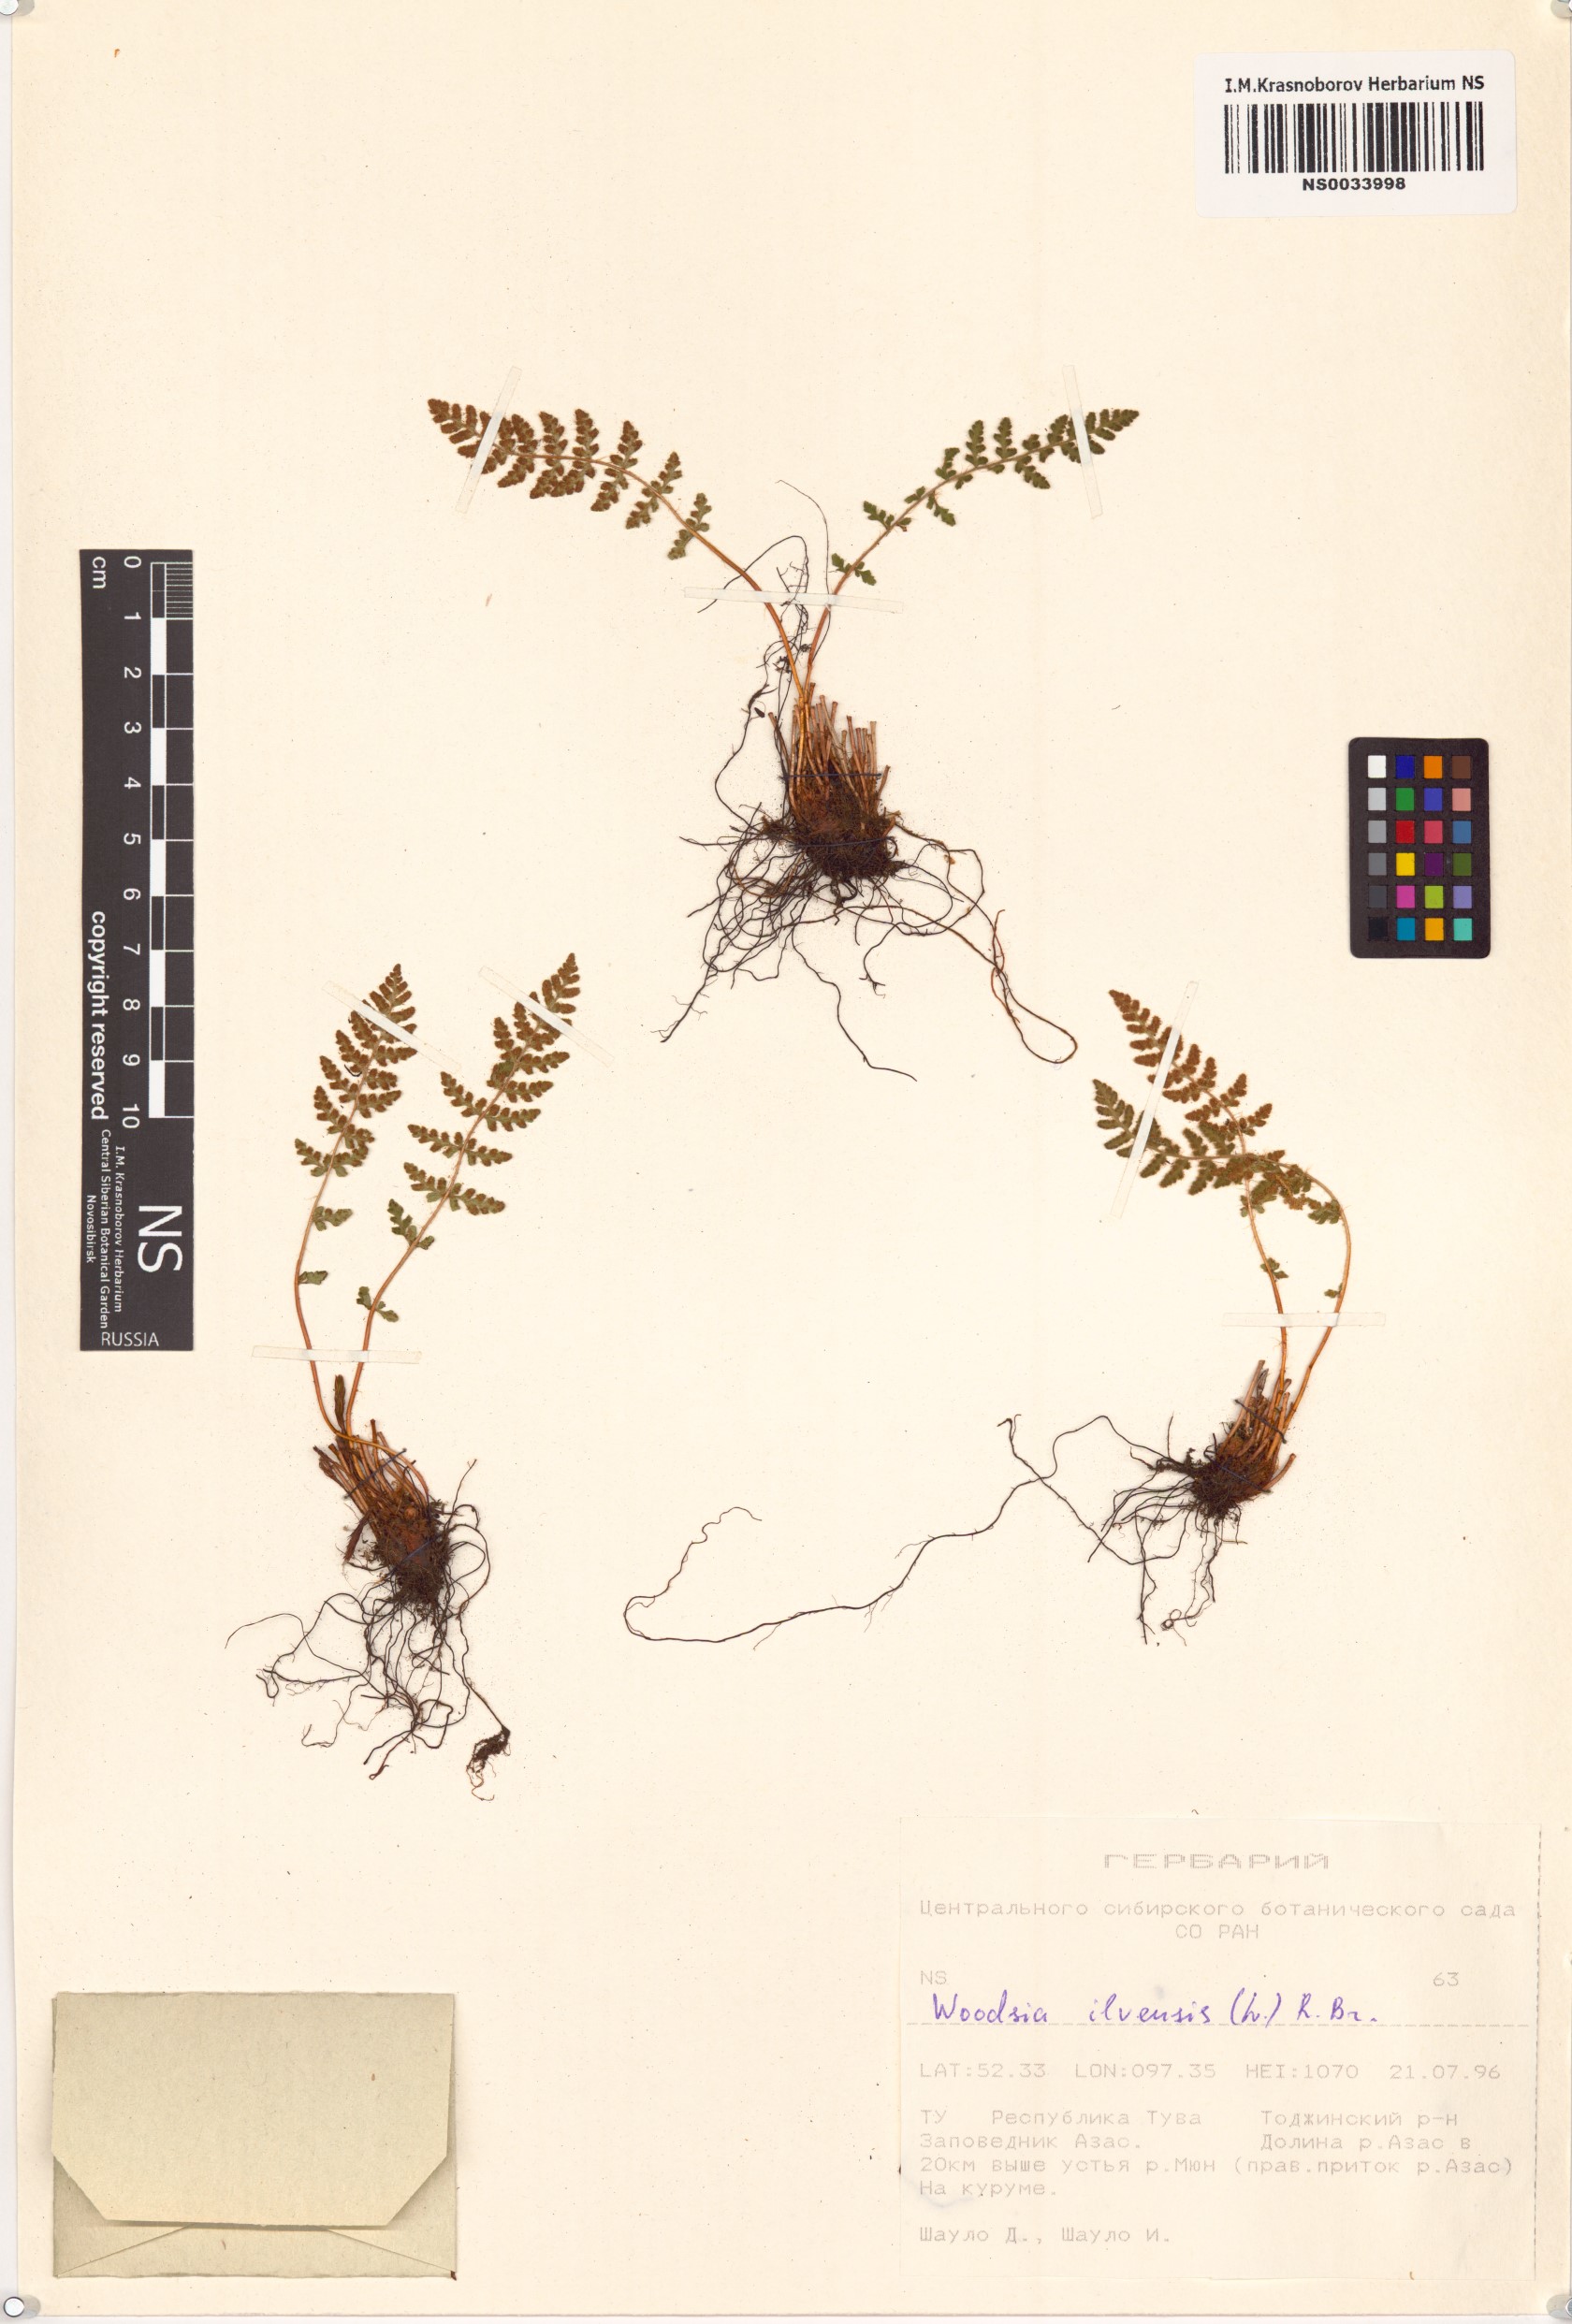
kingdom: Plantae
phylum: Tracheophyta
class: Polypodiopsida
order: Polypodiales
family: Woodsiaceae
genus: Woodsia
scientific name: Woodsia ilvensis
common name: Fragrant woodsia
